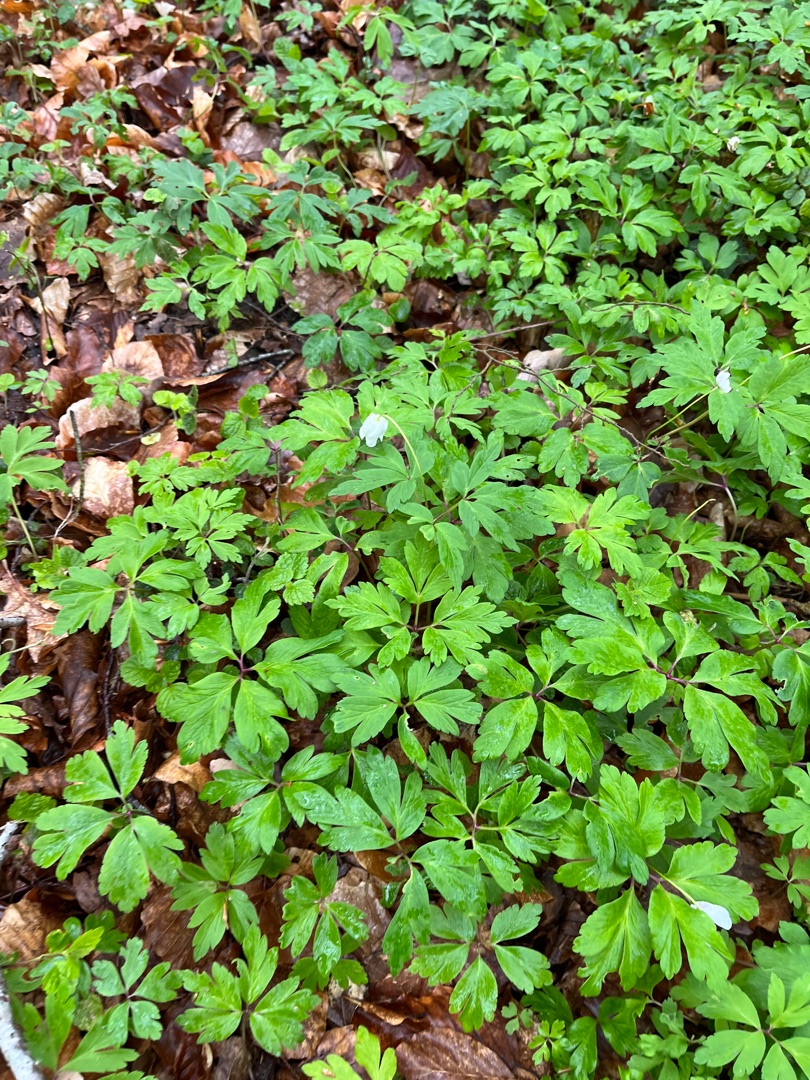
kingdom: Plantae
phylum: Tracheophyta
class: Magnoliopsida
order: Ranunculales
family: Ranunculaceae
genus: Anemone
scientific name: Anemone nemorosa
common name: Hvid anemone
